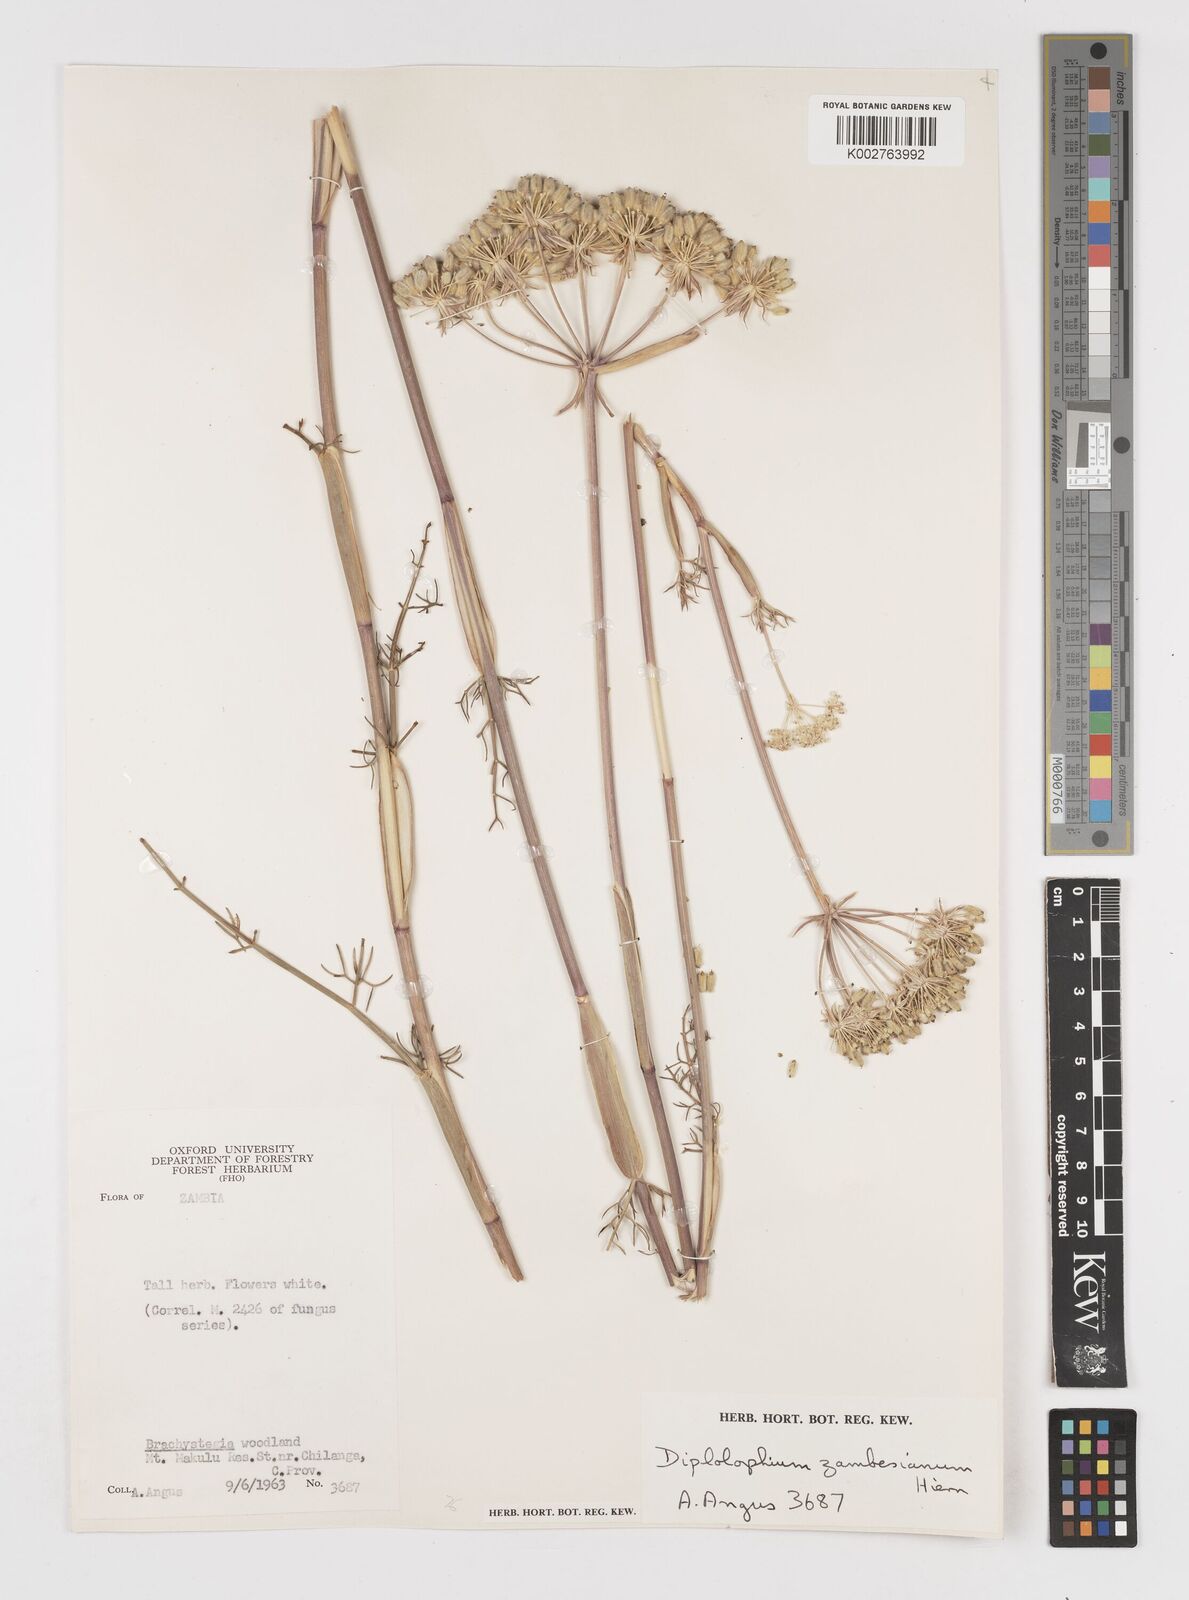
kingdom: Plantae
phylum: Tracheophyta
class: Magnoliopsida
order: Apiales
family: Apiaceae
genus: Diplolophium
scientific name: Diplolophium zambesianum
